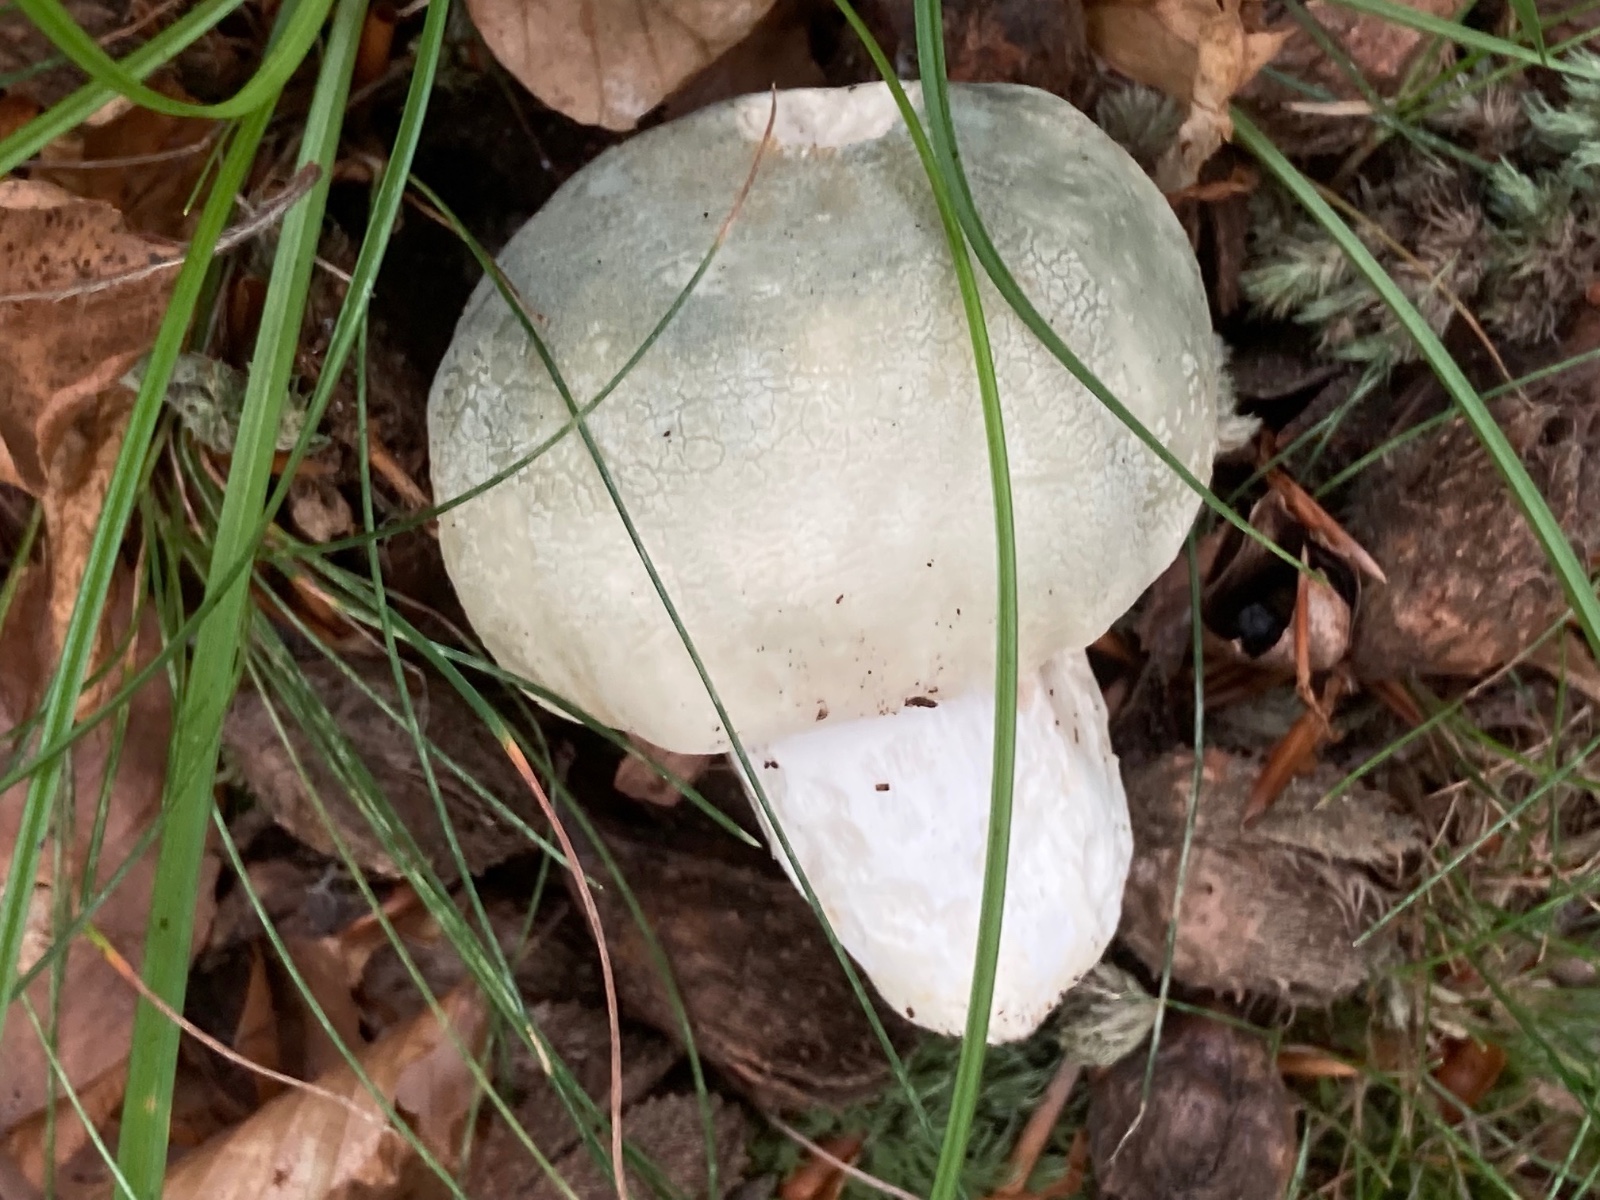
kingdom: Fungi
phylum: Basidiomycota
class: Agaricomycetes
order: Russulales
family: Russulaceae
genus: Russula
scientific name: Russula virescens
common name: spanskgrøn skørhat
